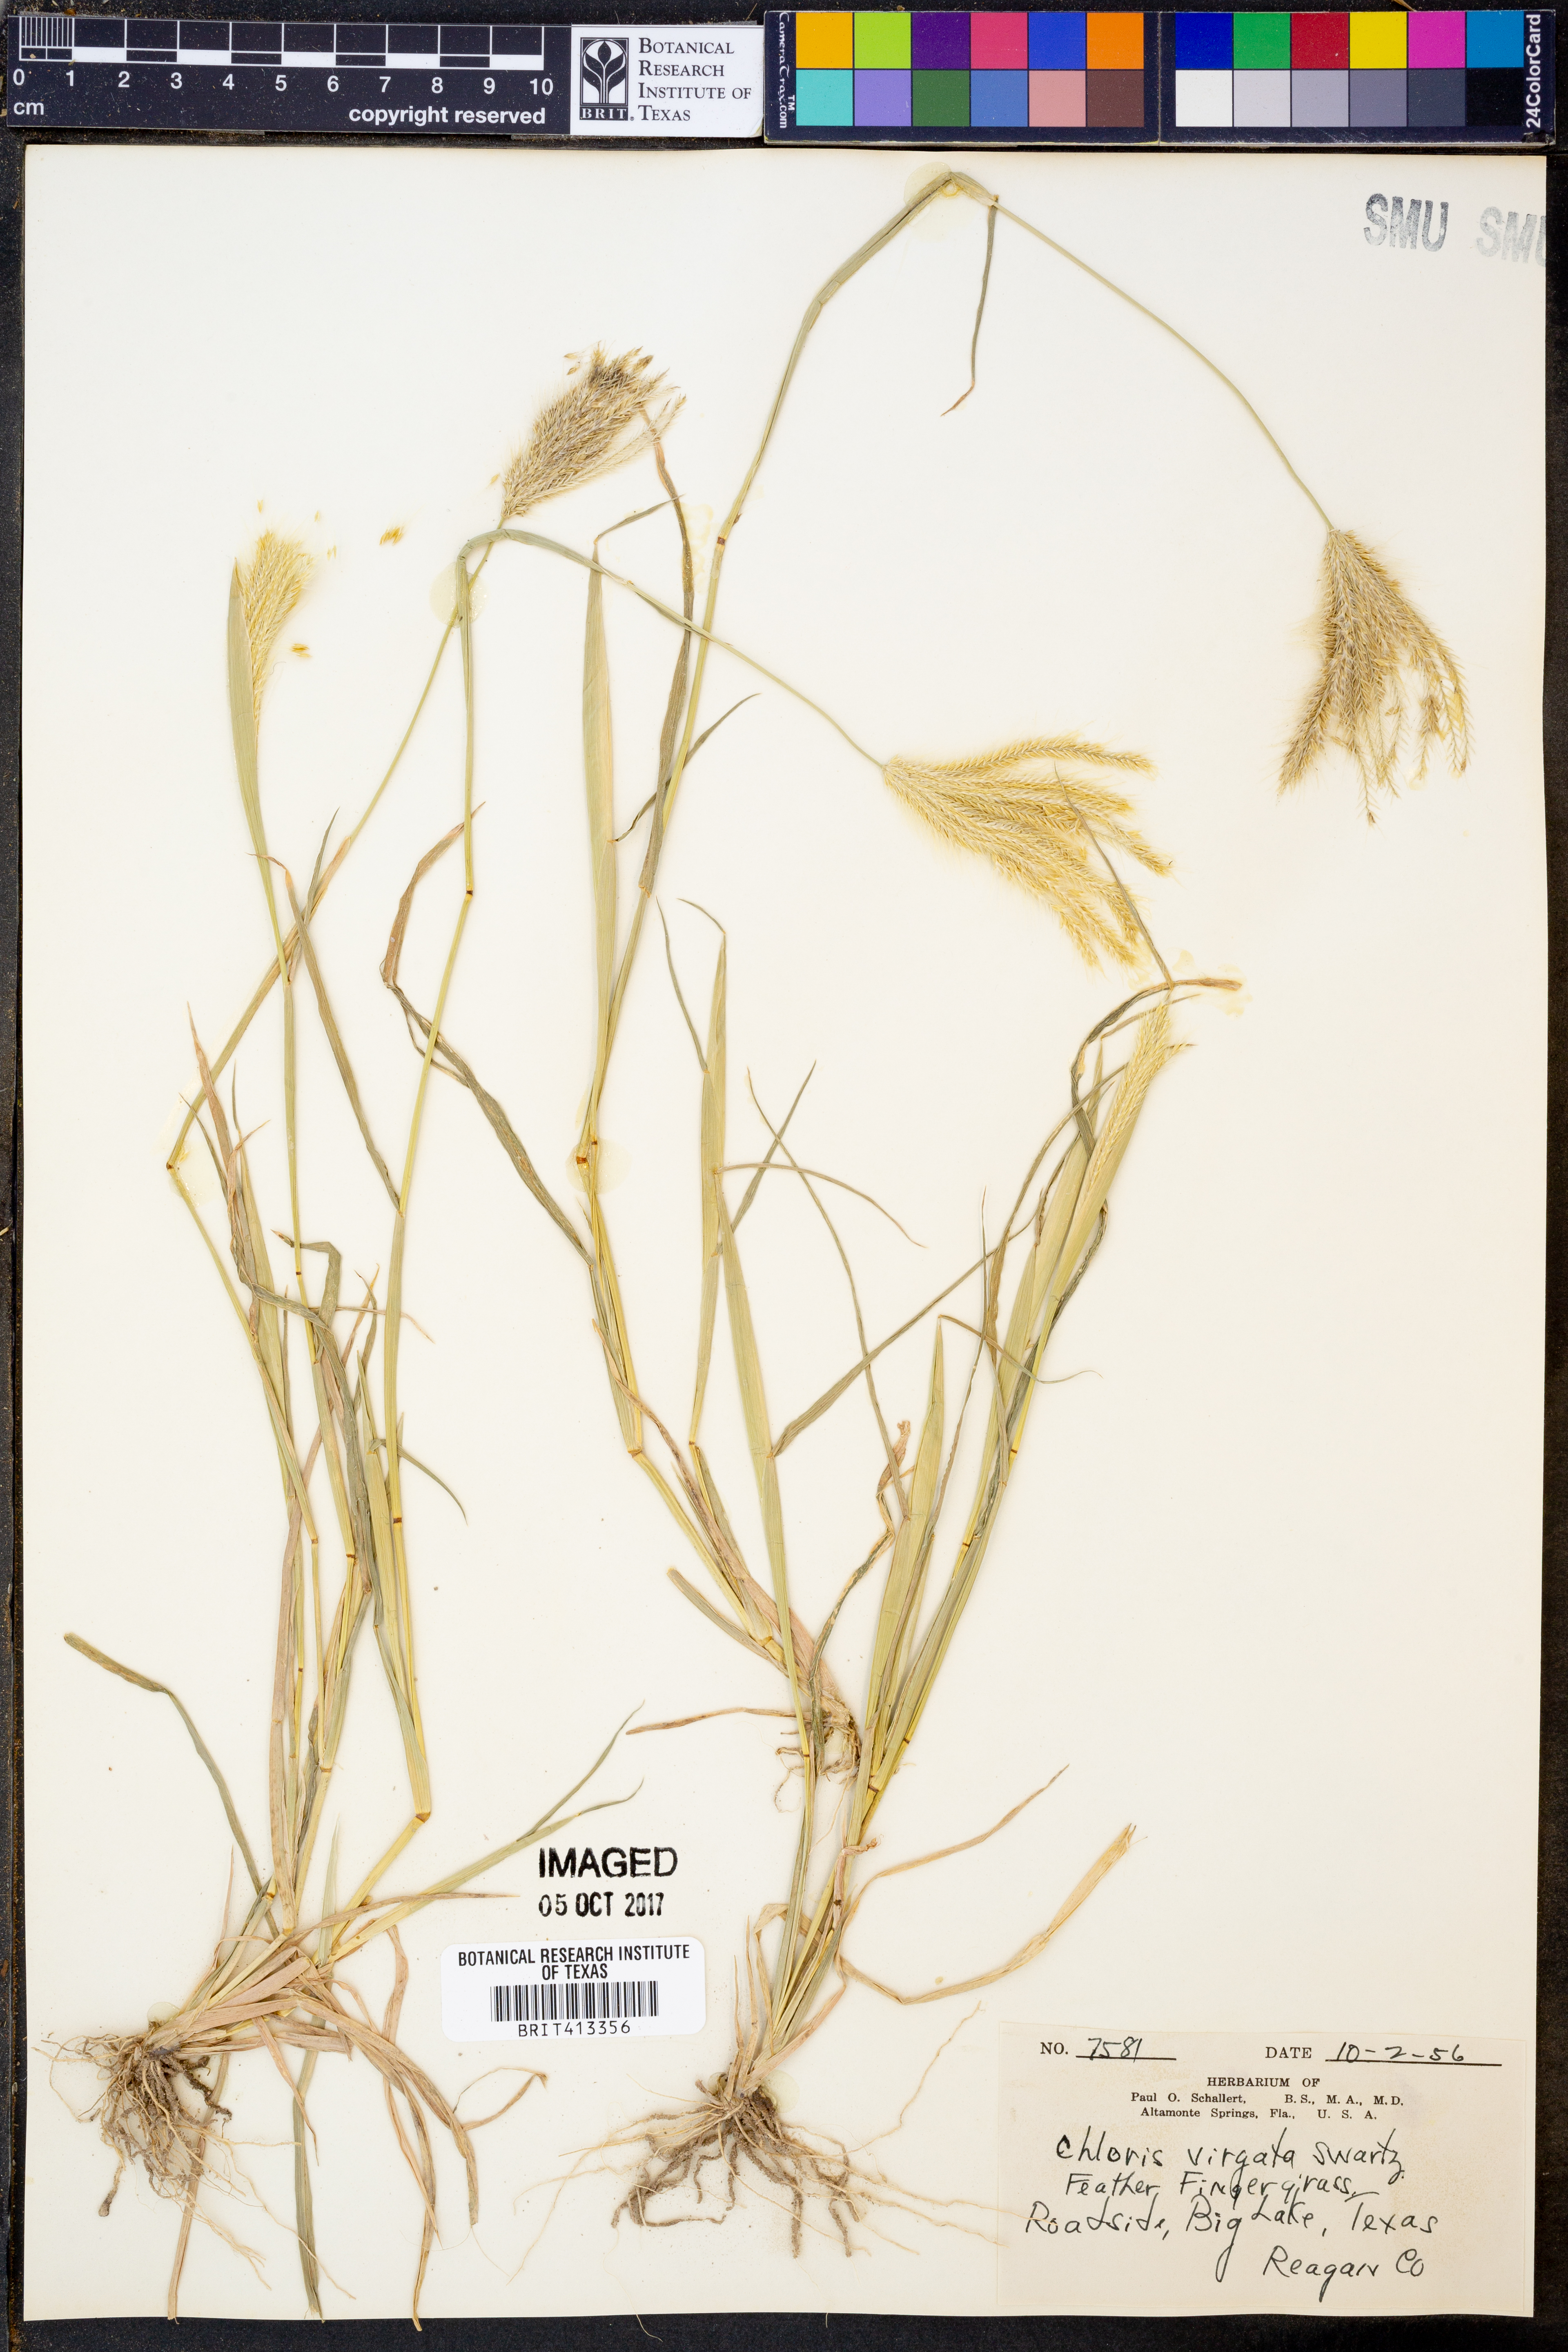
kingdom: Plantae
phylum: Tracheophyta
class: Liliopsida
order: Poales
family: Poaceae
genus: Chloris
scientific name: Chloris virgata
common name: Feathery rhodes-grass
